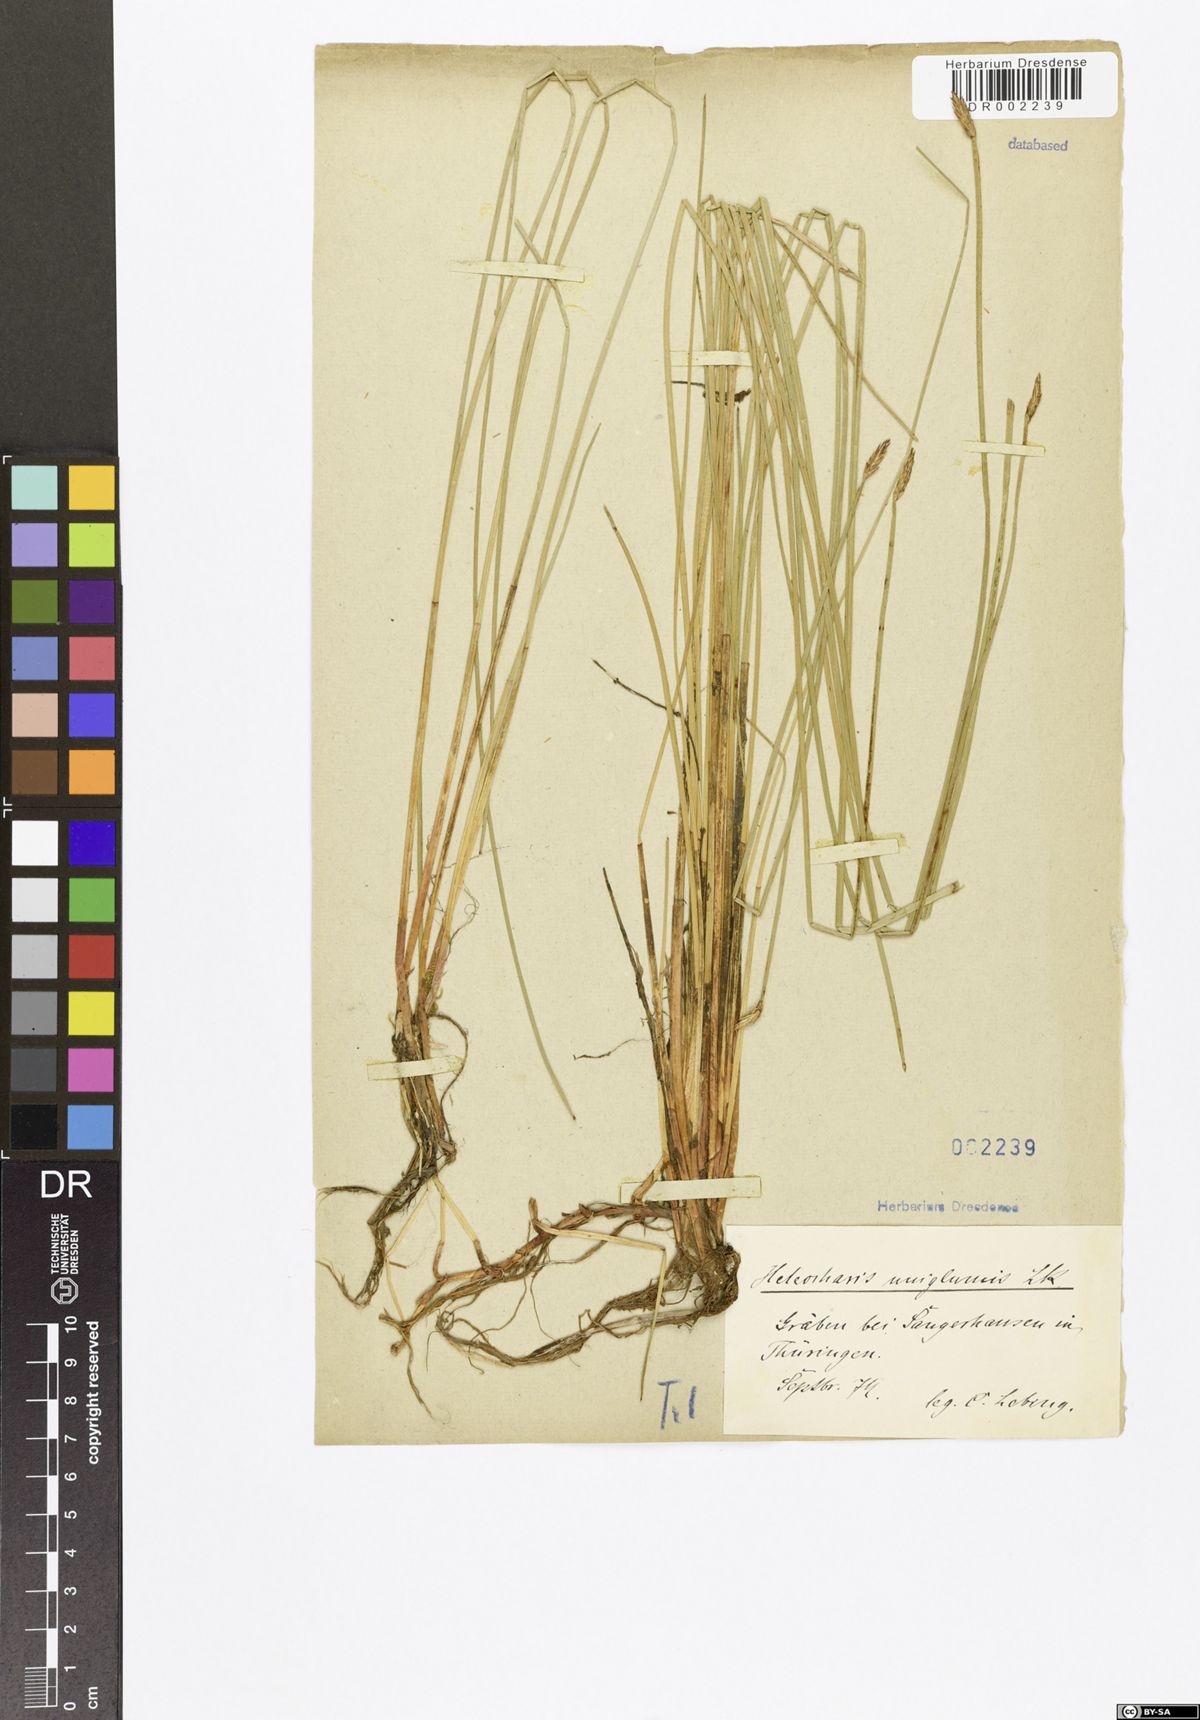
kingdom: Plantae
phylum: Tracheophyta
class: Liliopsida
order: Poales
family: Cyperaceae
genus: Eleocharis
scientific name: Eleocharis uniglumis
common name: Slender spike-rush
